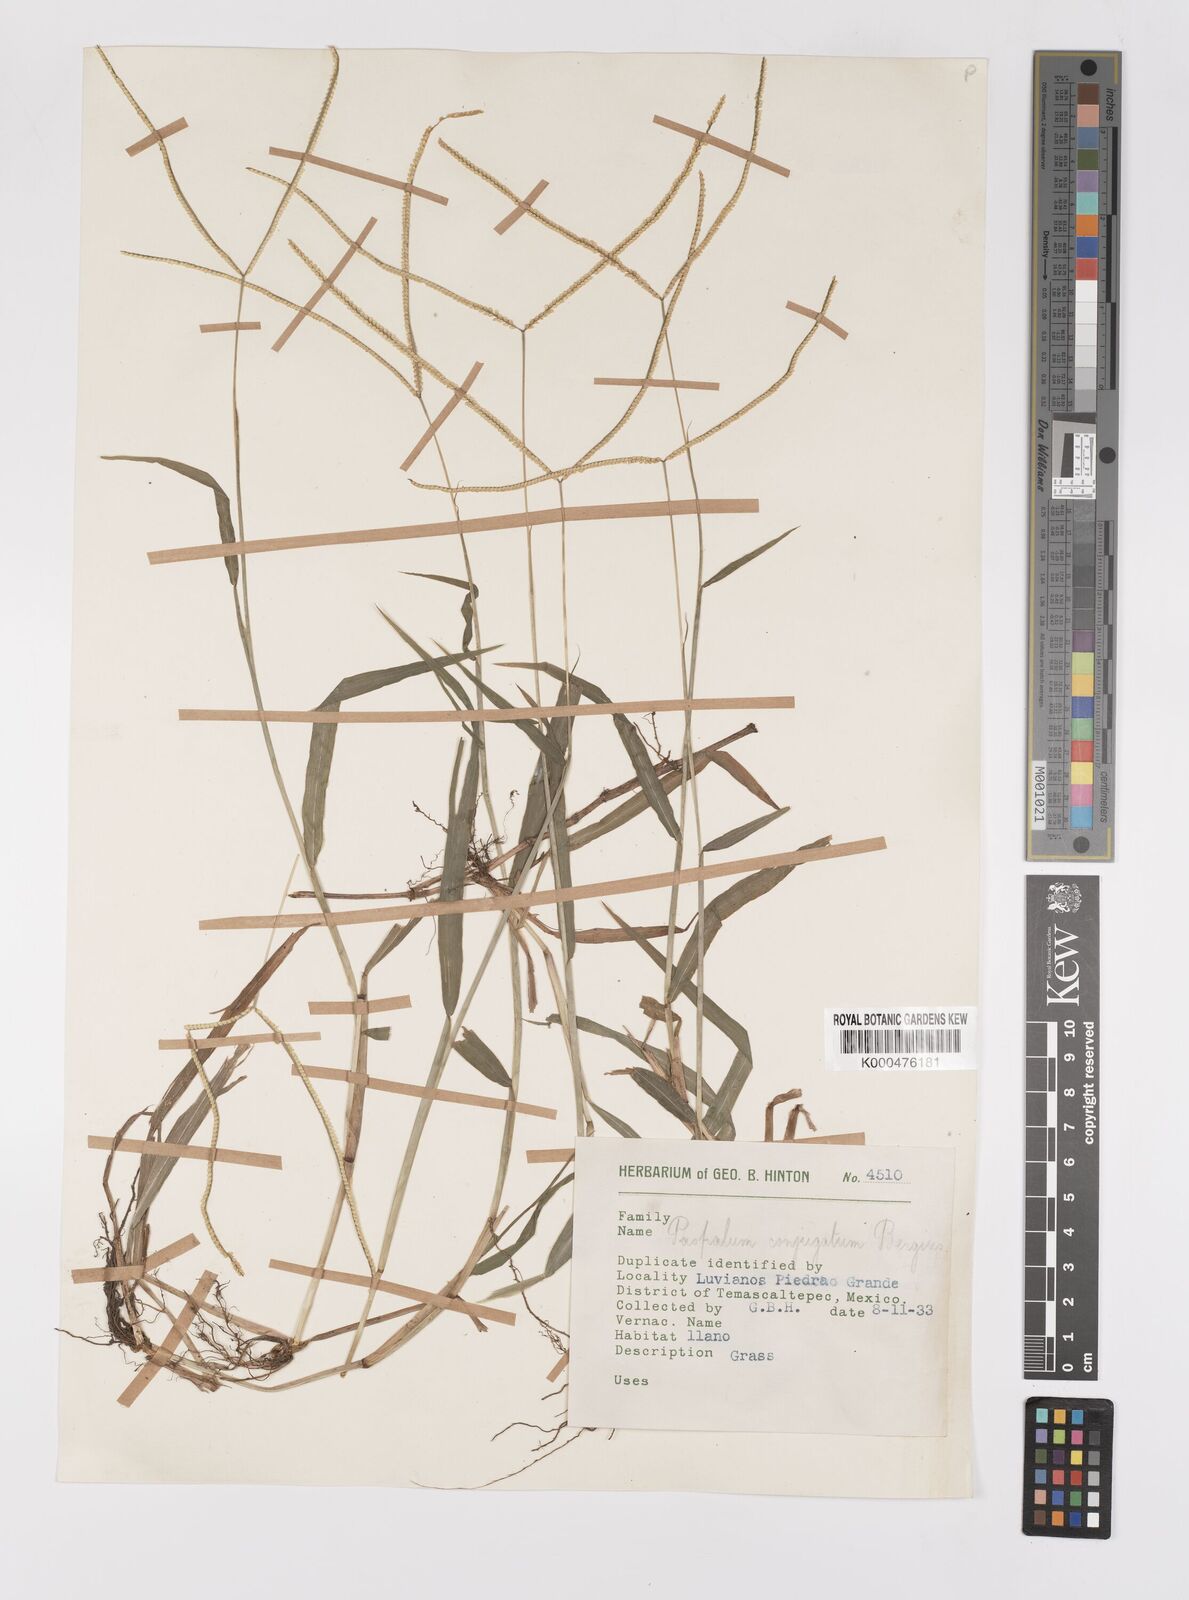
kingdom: Plantae
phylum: Tracheophyta
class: Liliopsida
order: Poales
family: Poaceae
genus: Paspalum
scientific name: Paspalum conjugatum
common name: Hilograss
